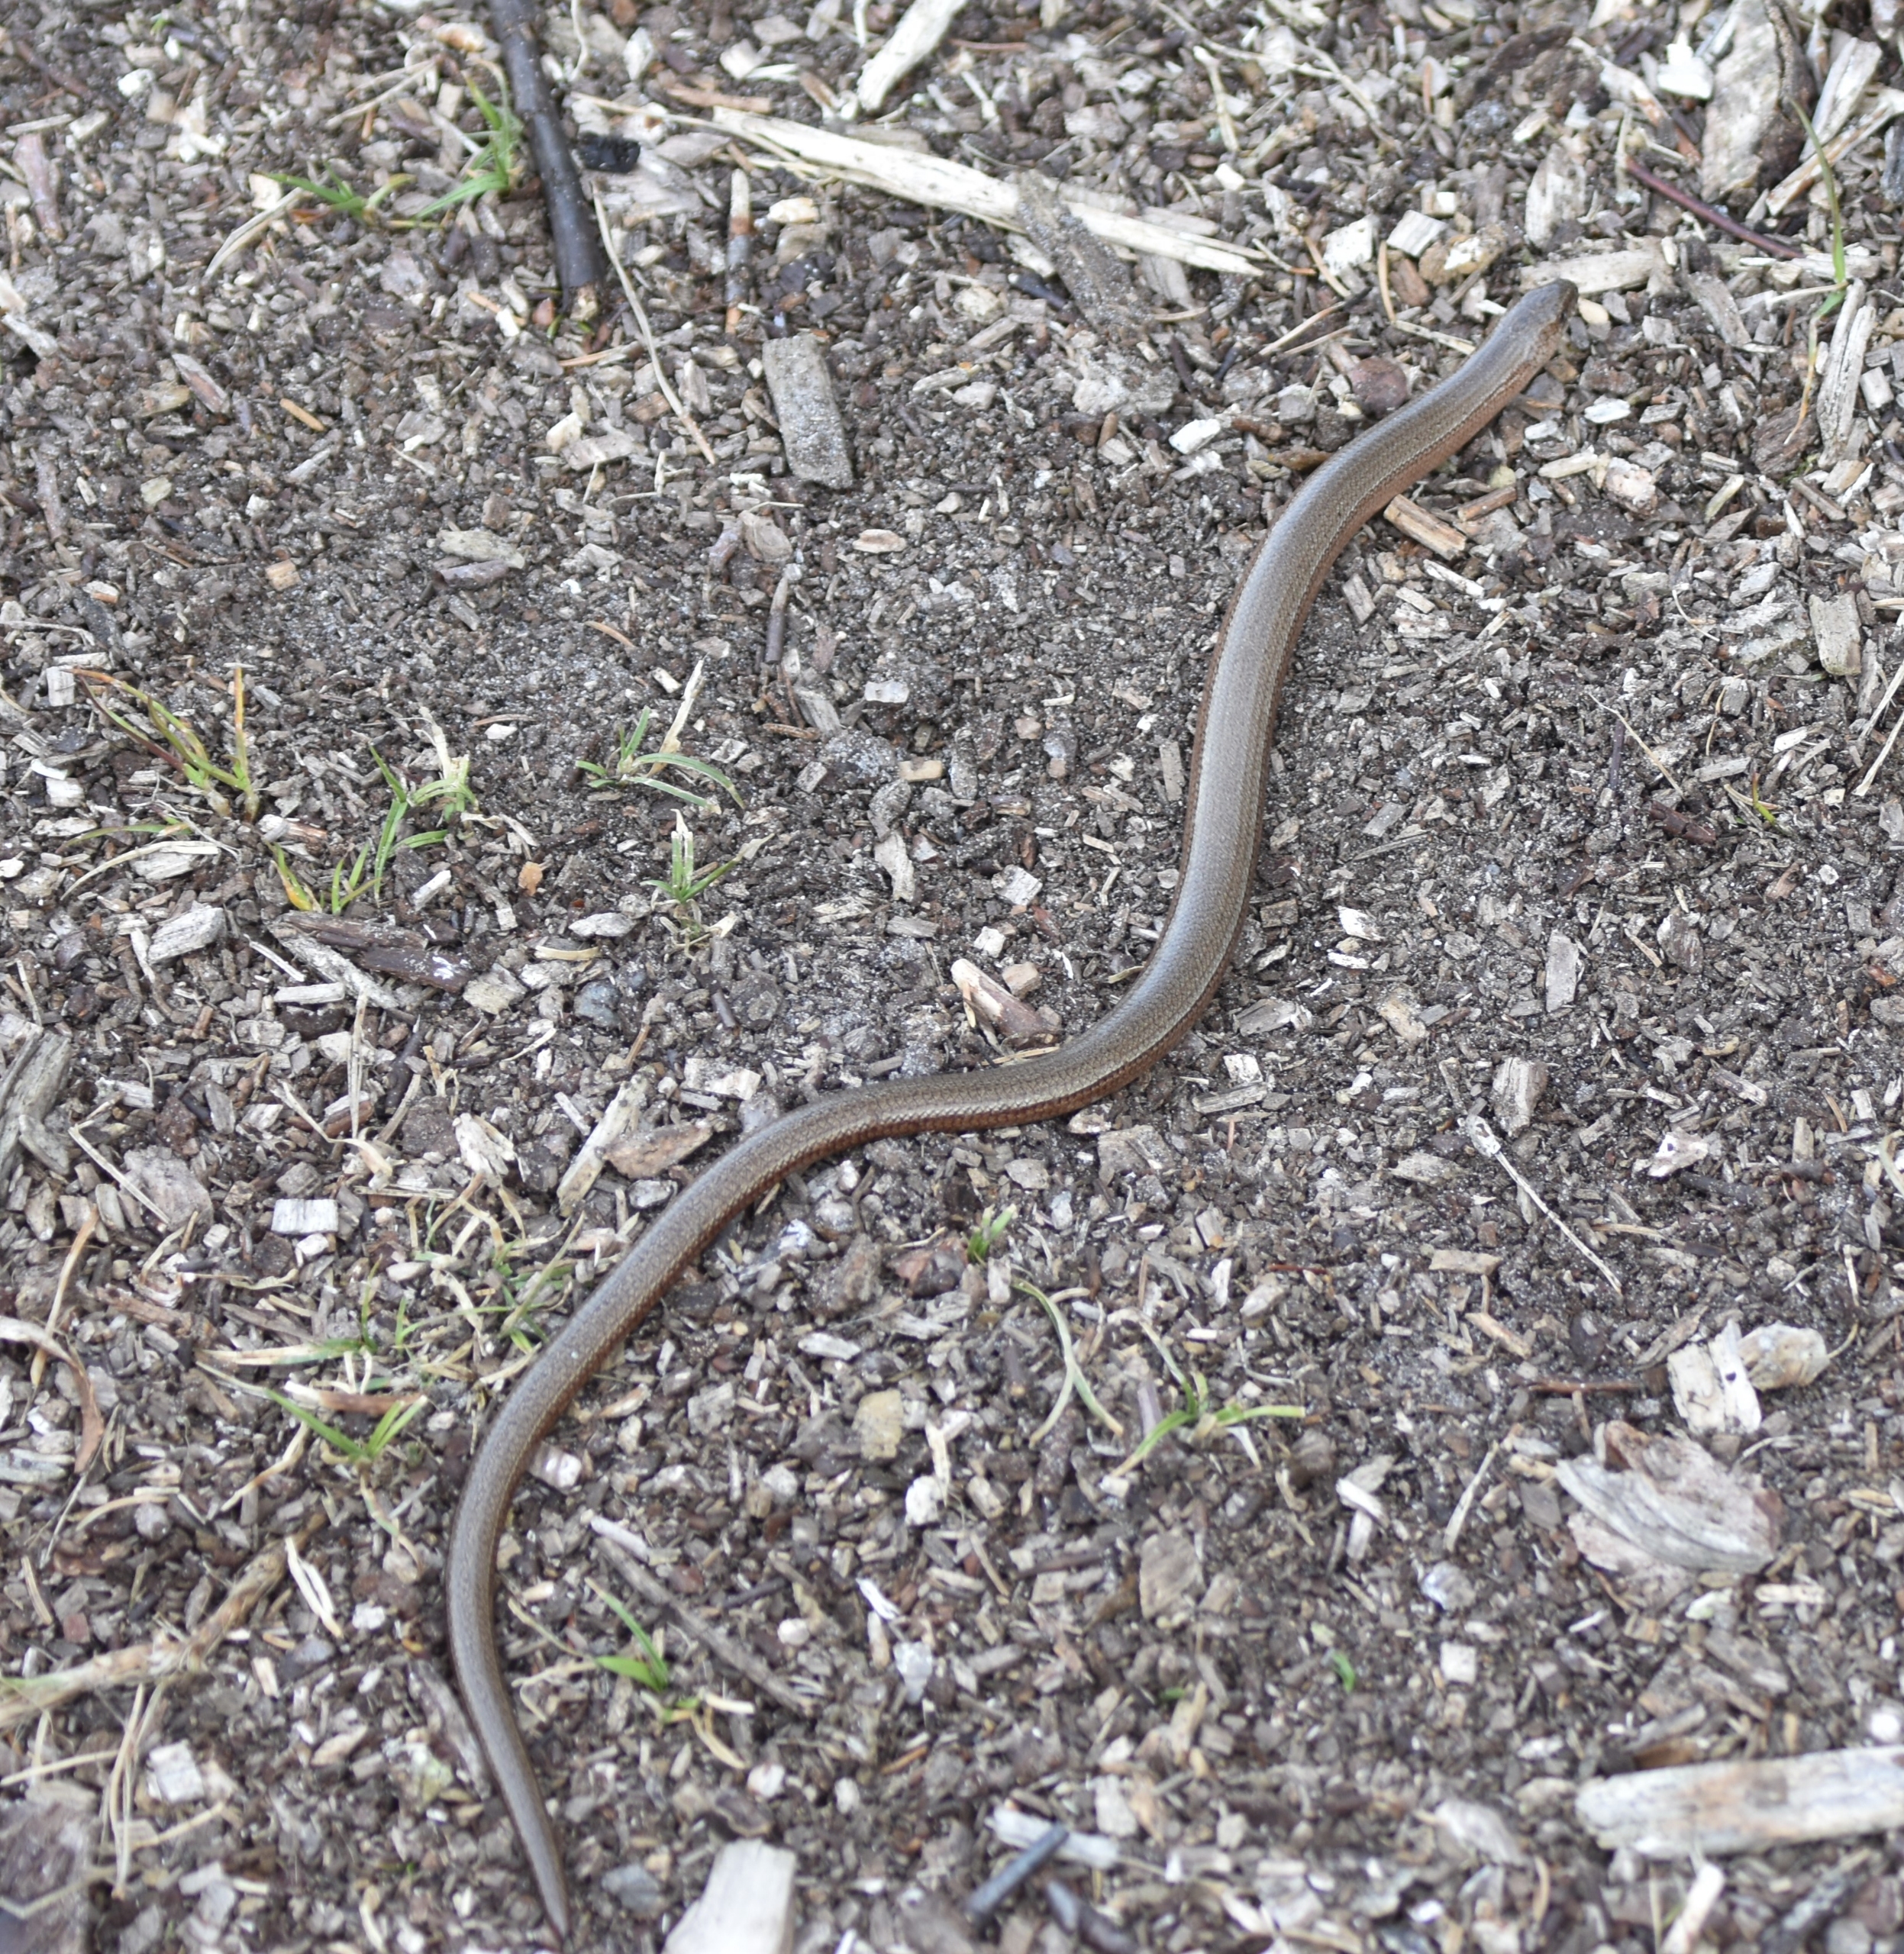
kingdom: Animalia
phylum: Chordata
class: Squamata
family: Anguidae
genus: Anguis
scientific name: Anguis fragilis
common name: Stålorm
